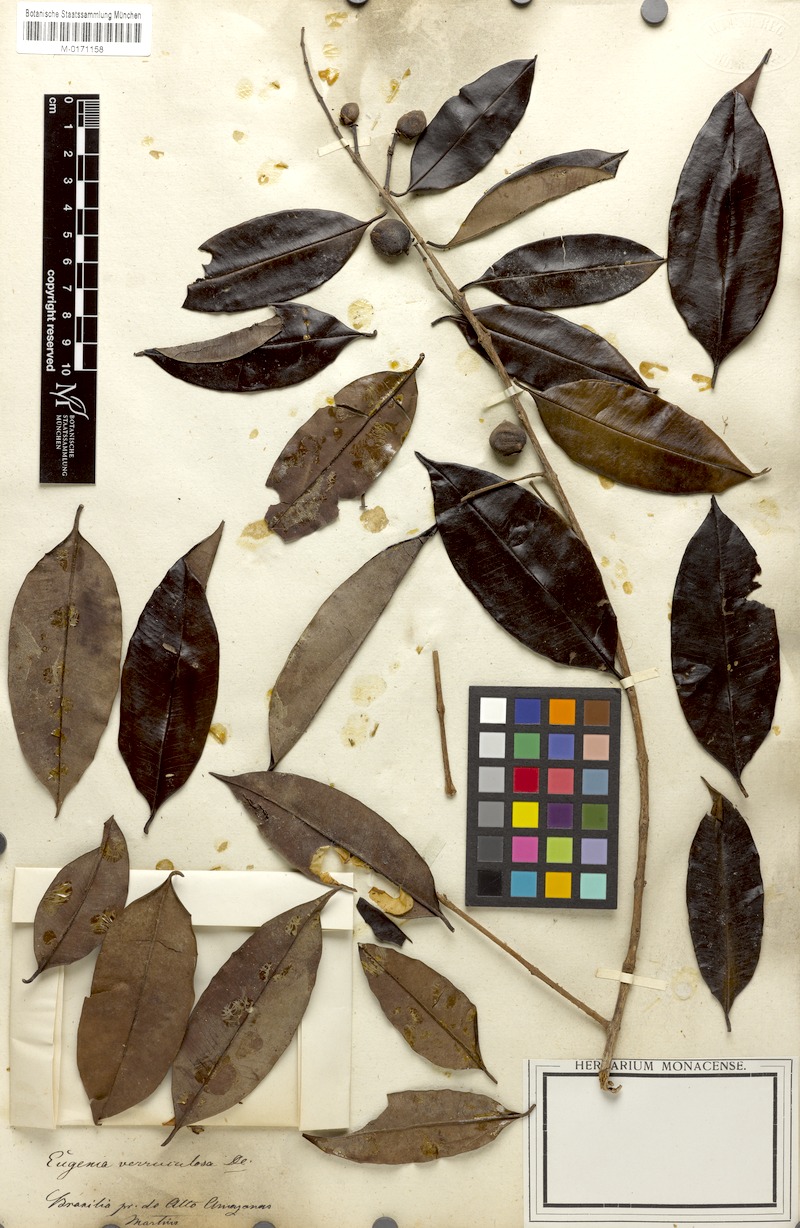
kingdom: Plantae
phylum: Tracheophyta
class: Magnoliopsida
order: Myrtales
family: Myrtaceae
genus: Eugenia
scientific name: Eugenia polystachya
